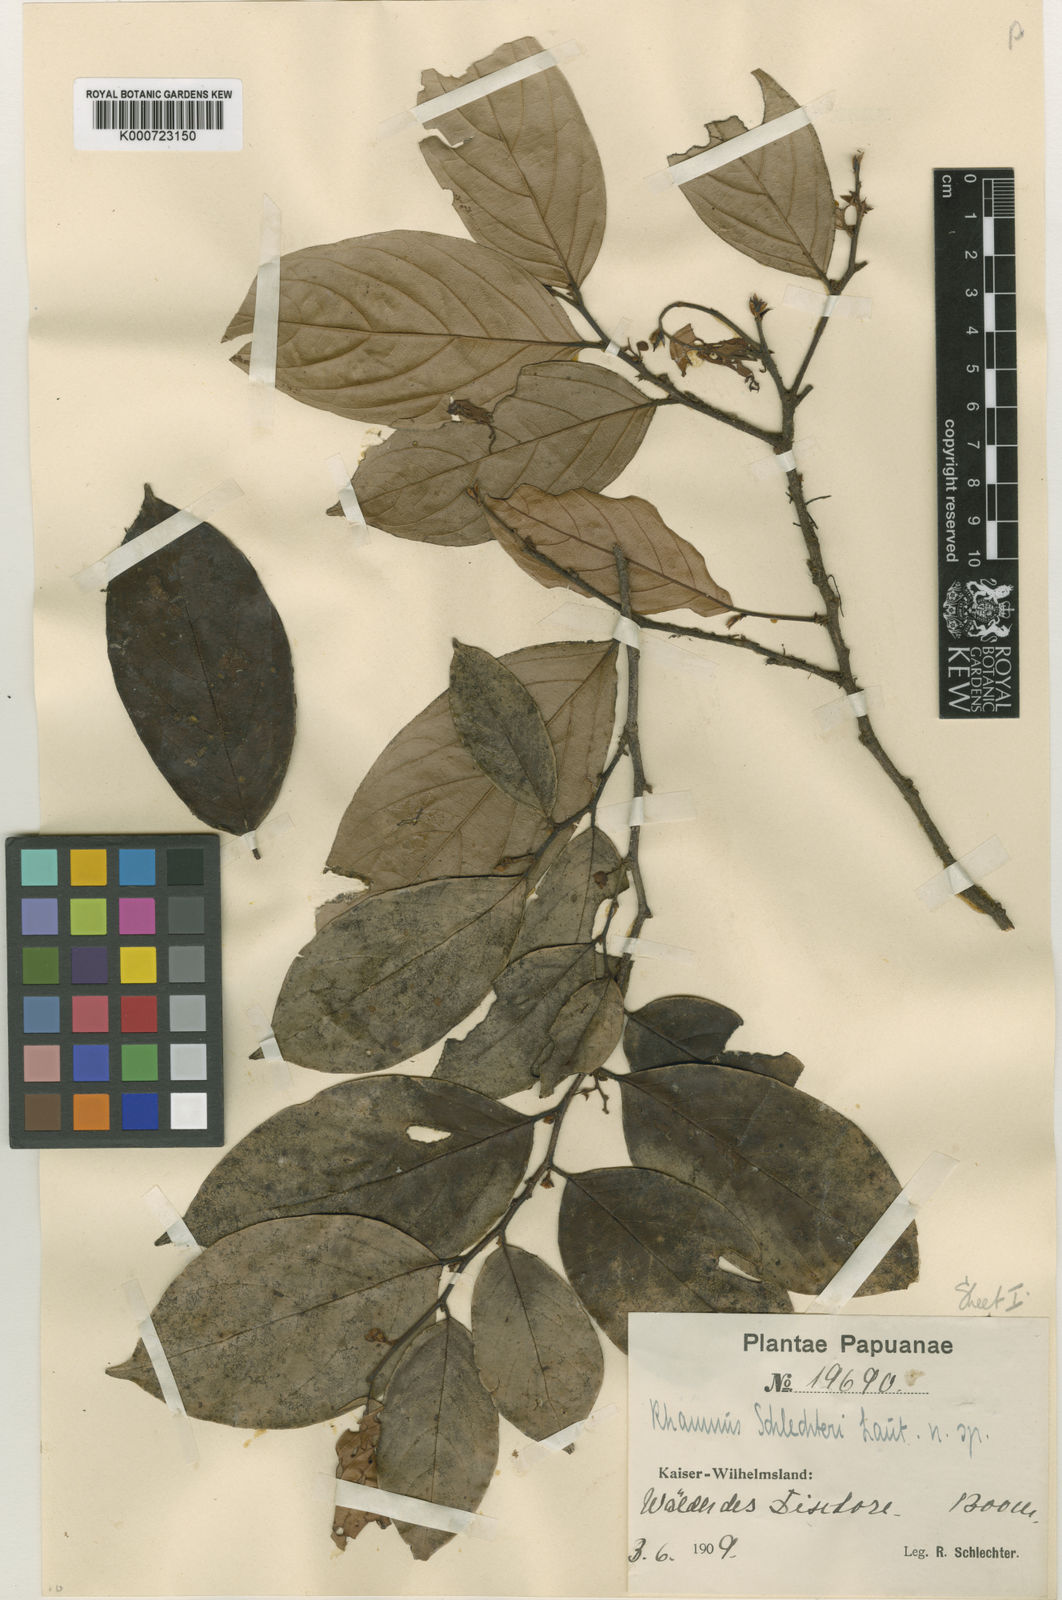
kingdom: Plantae
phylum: Tracheophyta
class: Magnoliopsida
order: Rosales
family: Rhamnaceae
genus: Rhamnus
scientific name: Rhamnus schlechteri
